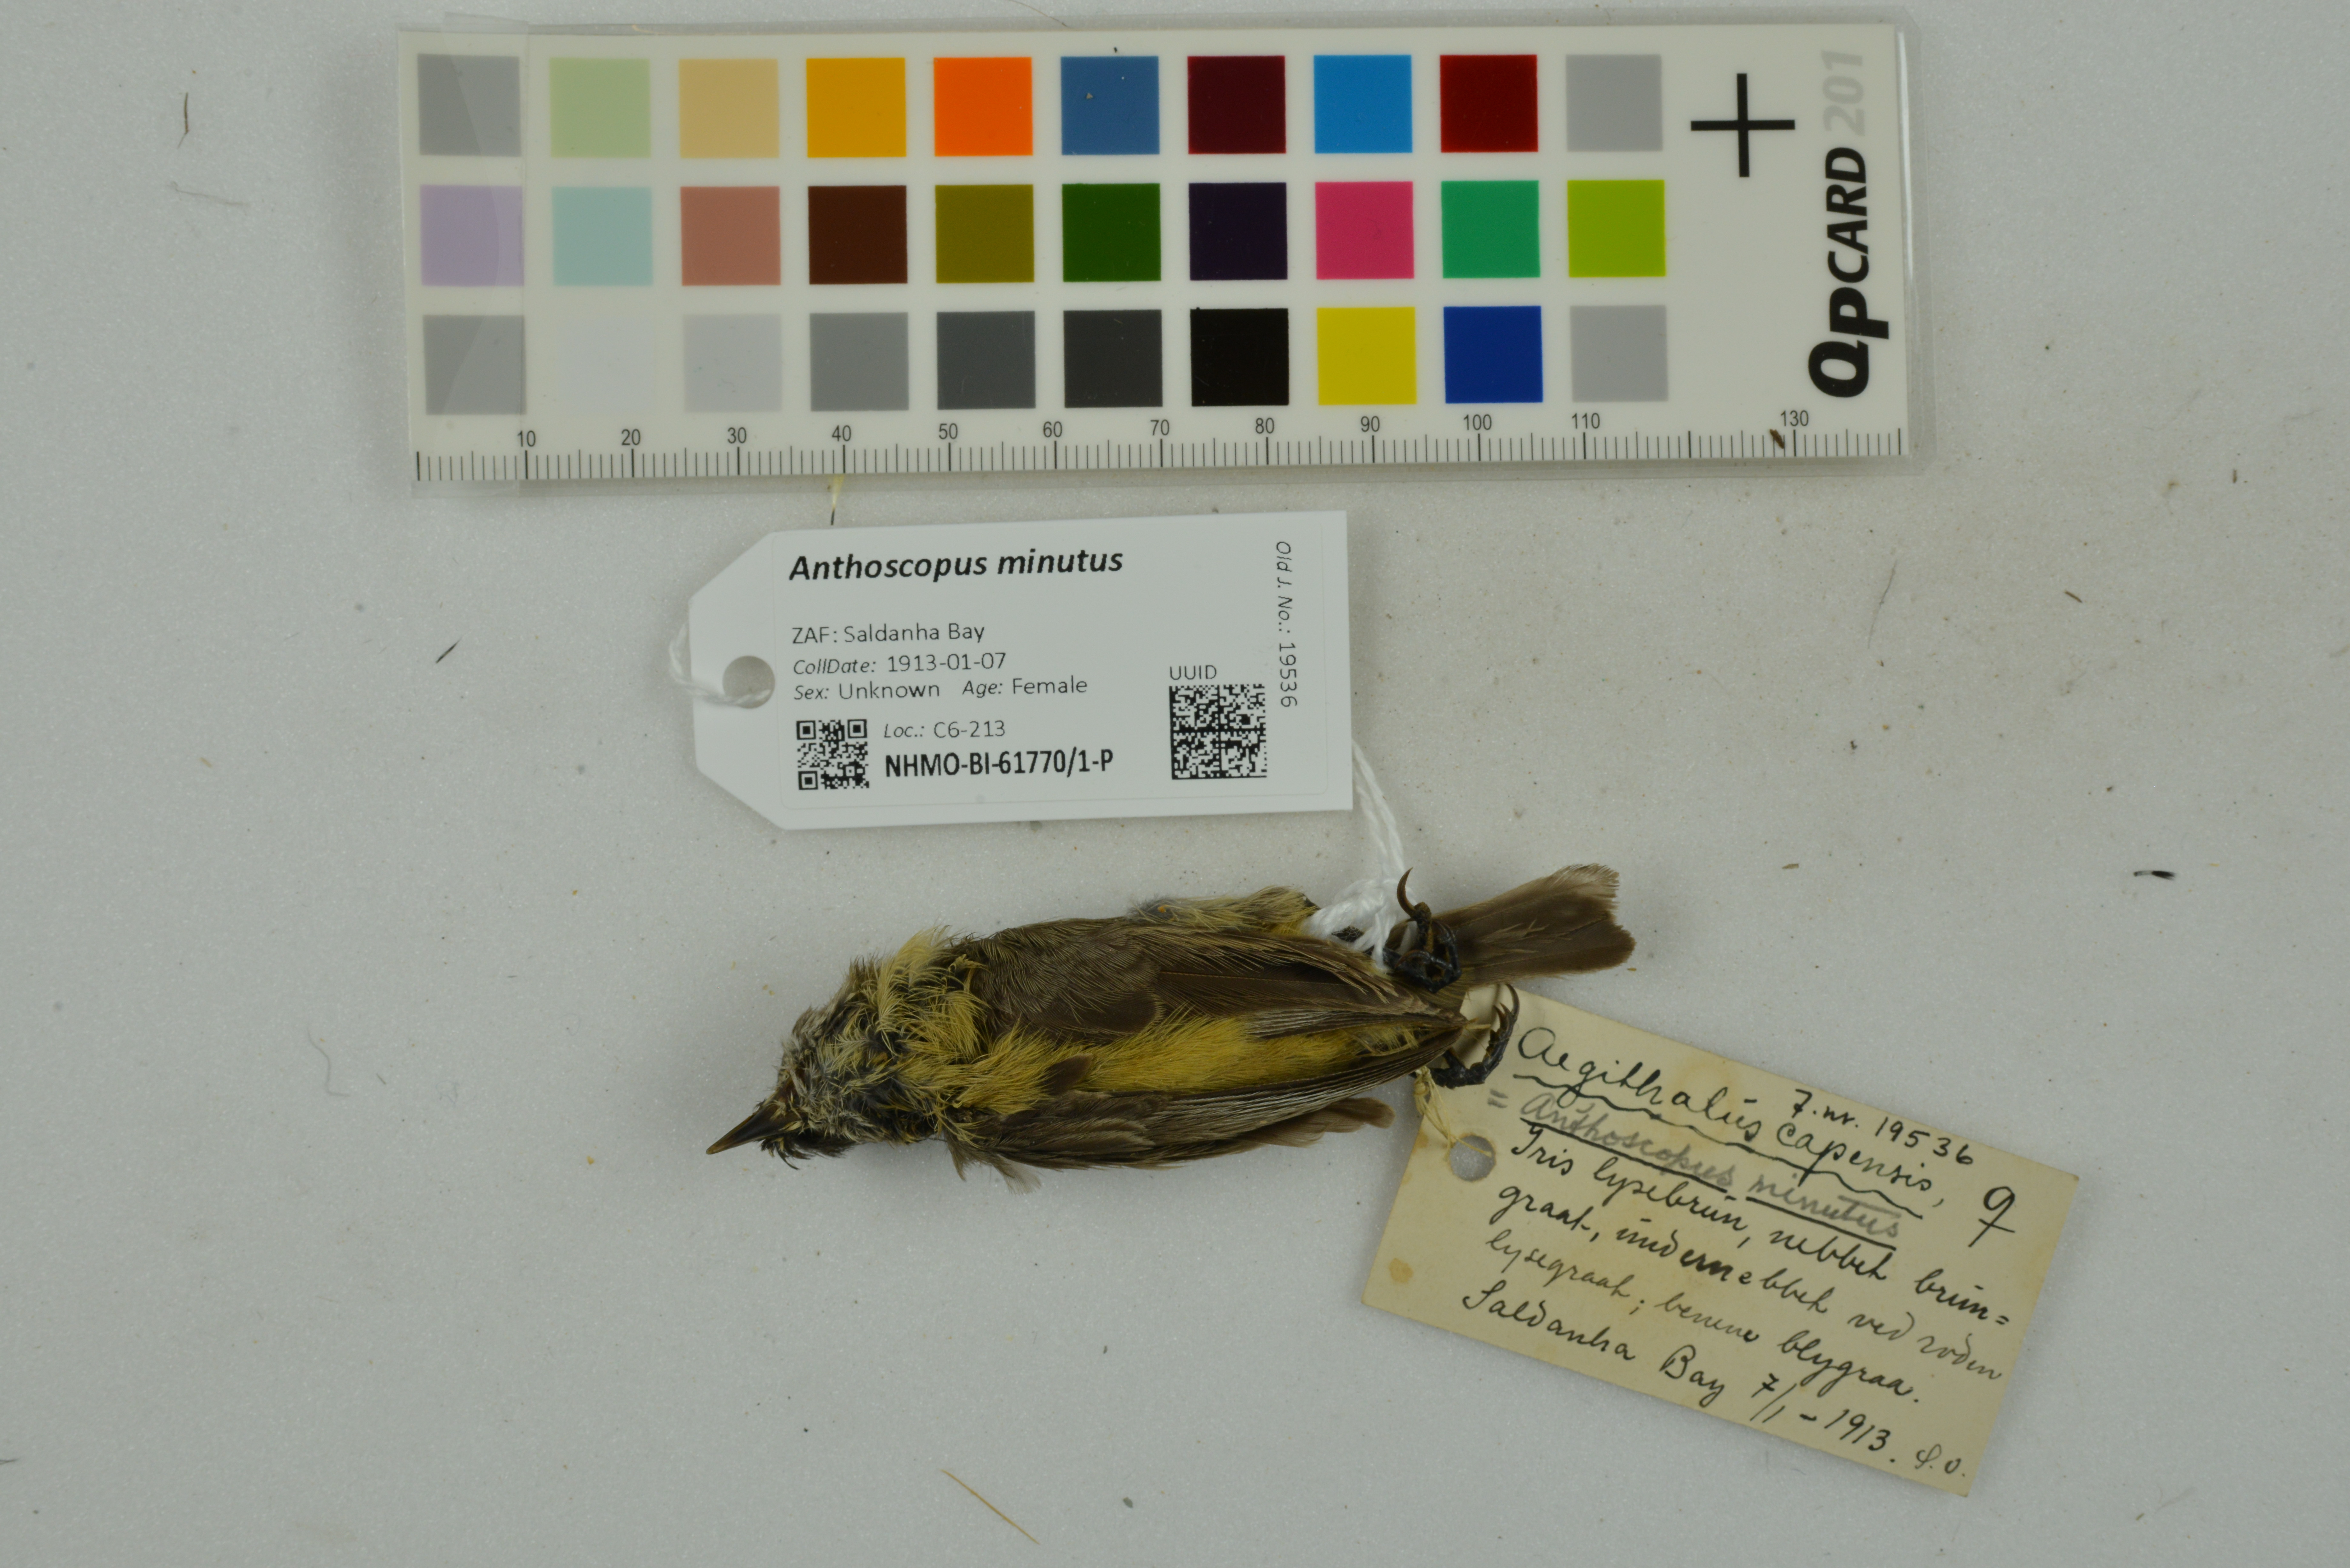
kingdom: Animalia
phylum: Chordata
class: Aves
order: Passeriformes
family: Remizidae
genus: Anthoscopus
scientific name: Anthoscopus minutus
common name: Cape penduline tit
